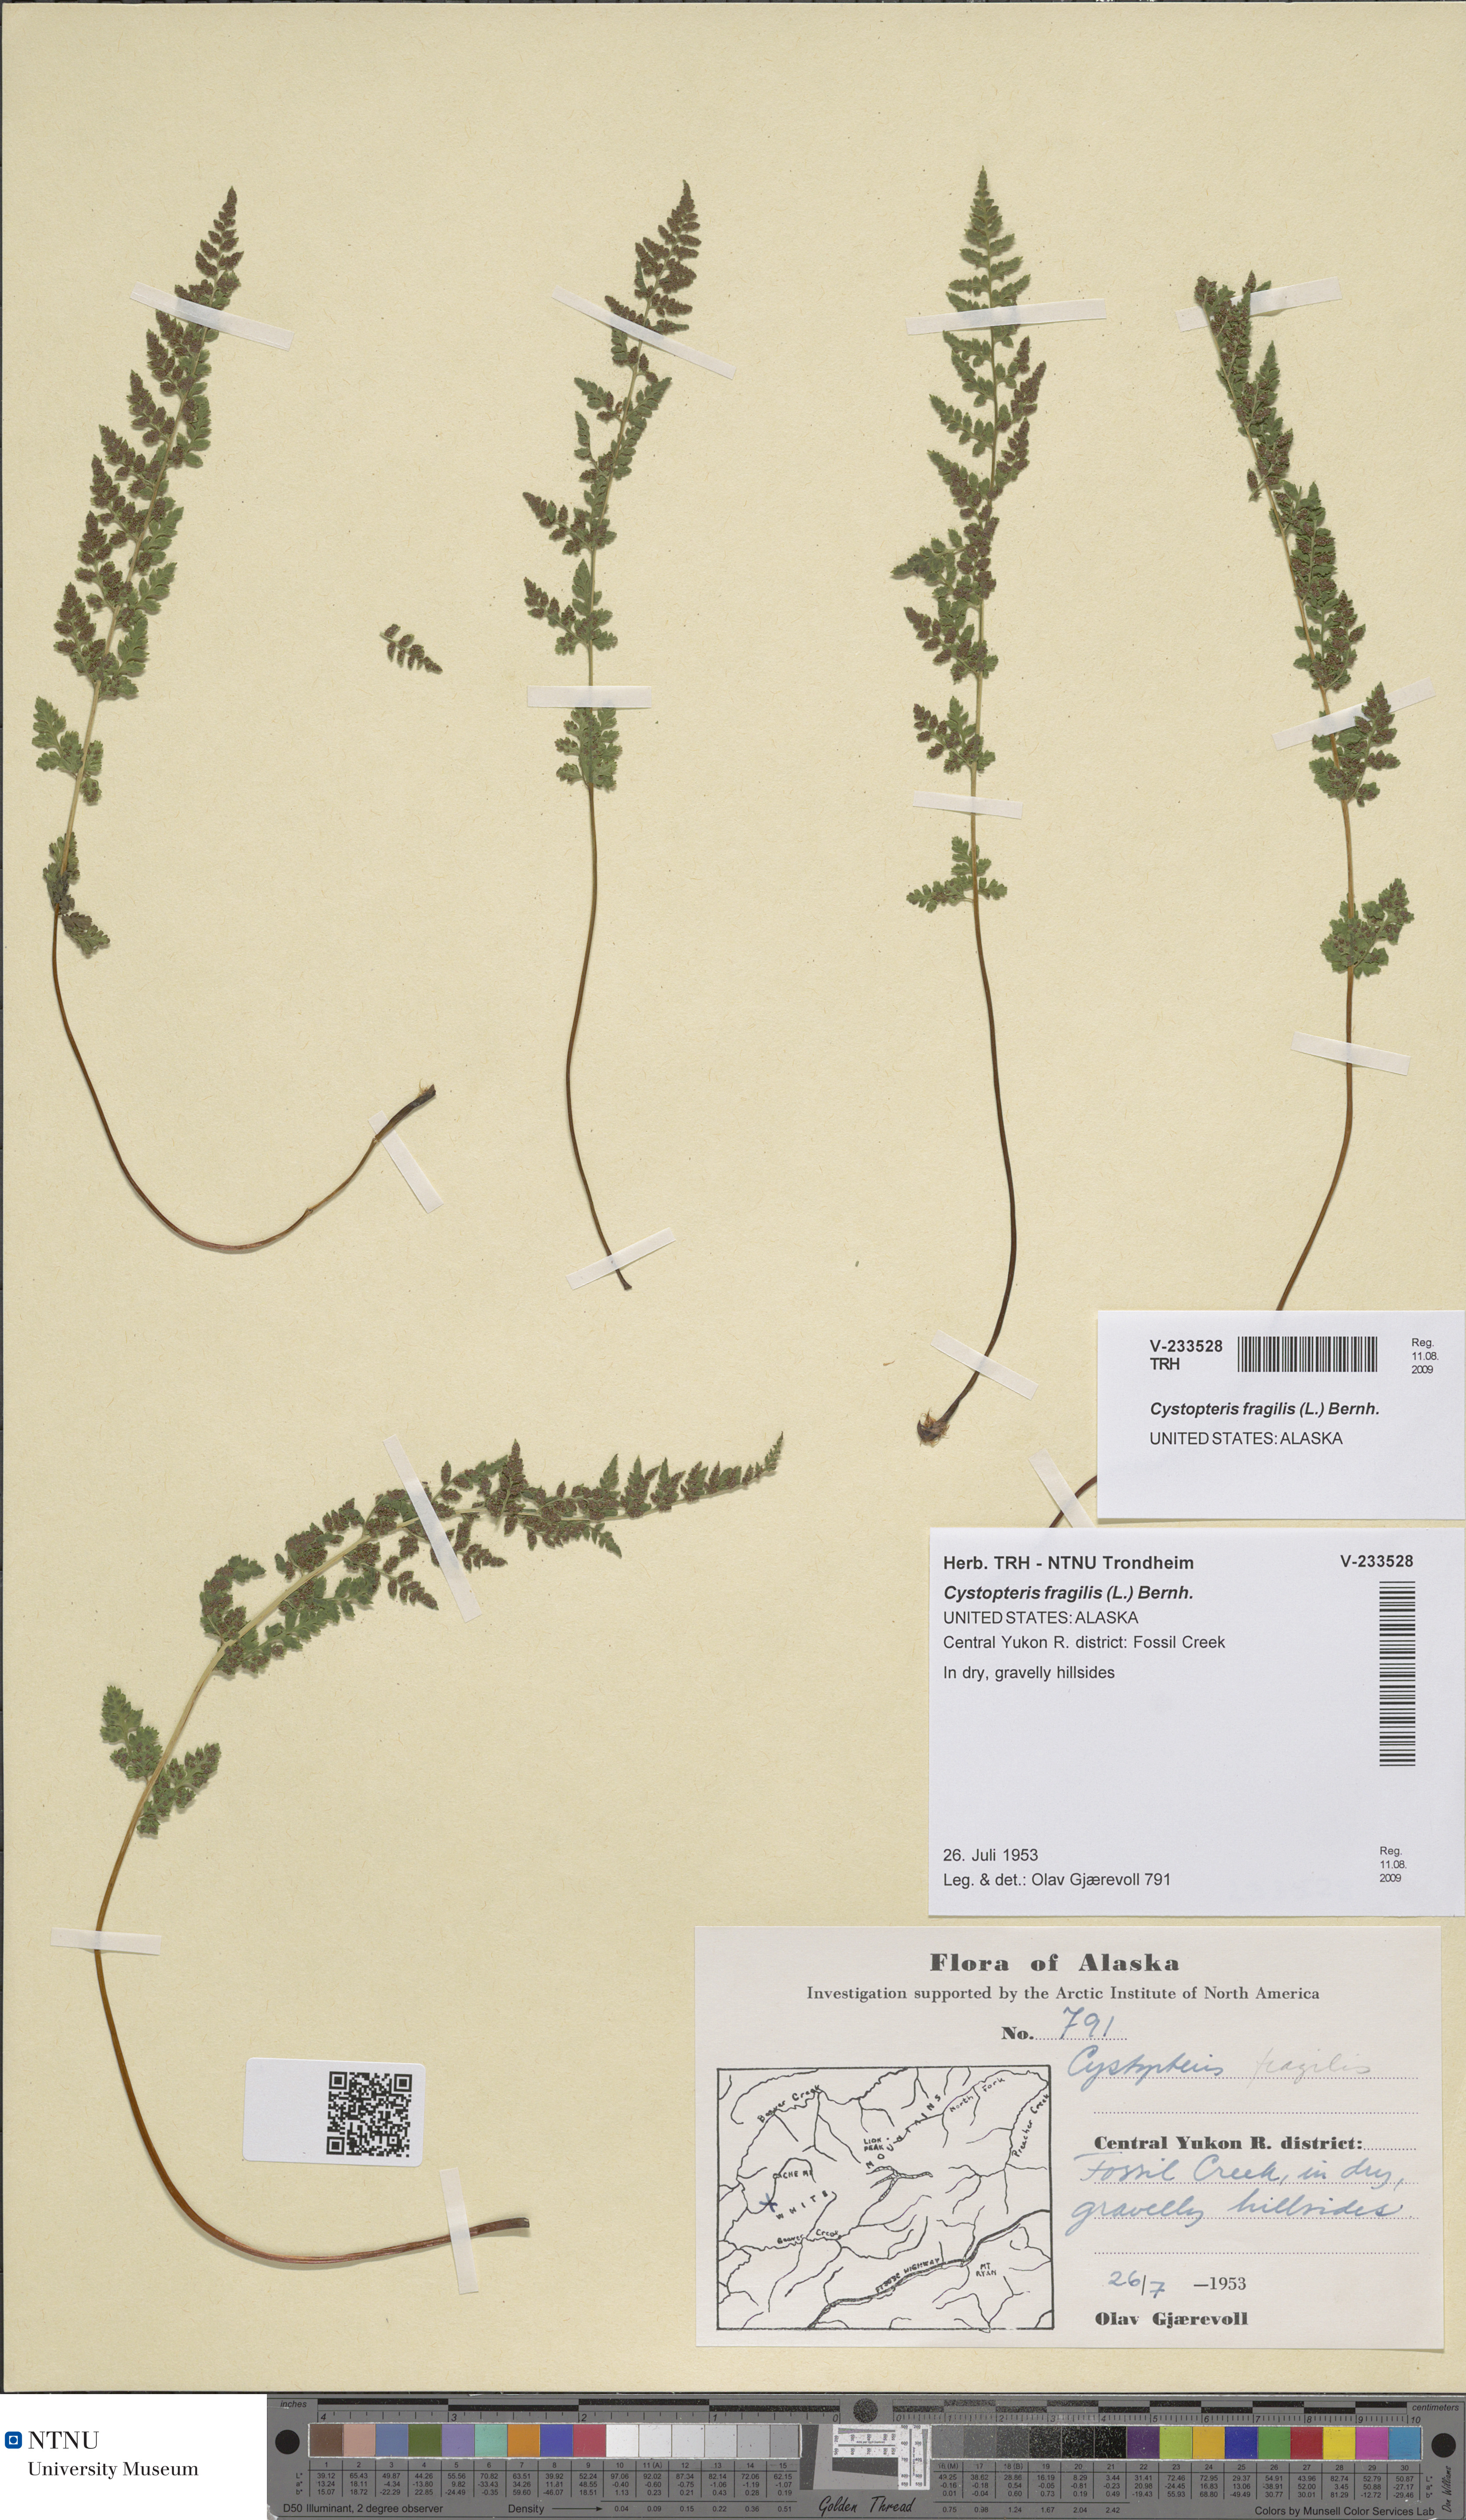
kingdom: Plantae
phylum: Tracheophyta
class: Polypodiopsida
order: Polypodiales
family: Cystopteridaceae
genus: Cystopteris
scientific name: Cystopteris fragilis
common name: Brittle bladder fern
